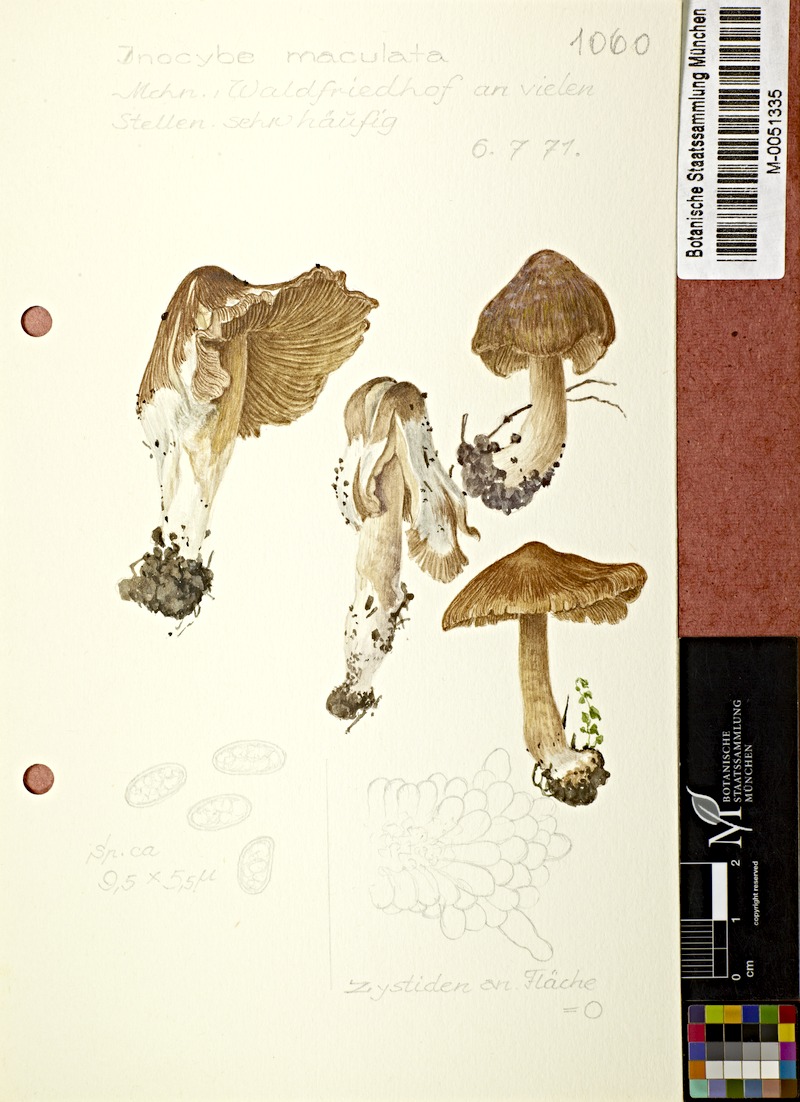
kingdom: Fungi
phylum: Basidiomycota
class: Agaricomycetes
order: Agaricales
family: Inocybaceae
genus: Inosperma
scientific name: Inosperma maculatum
